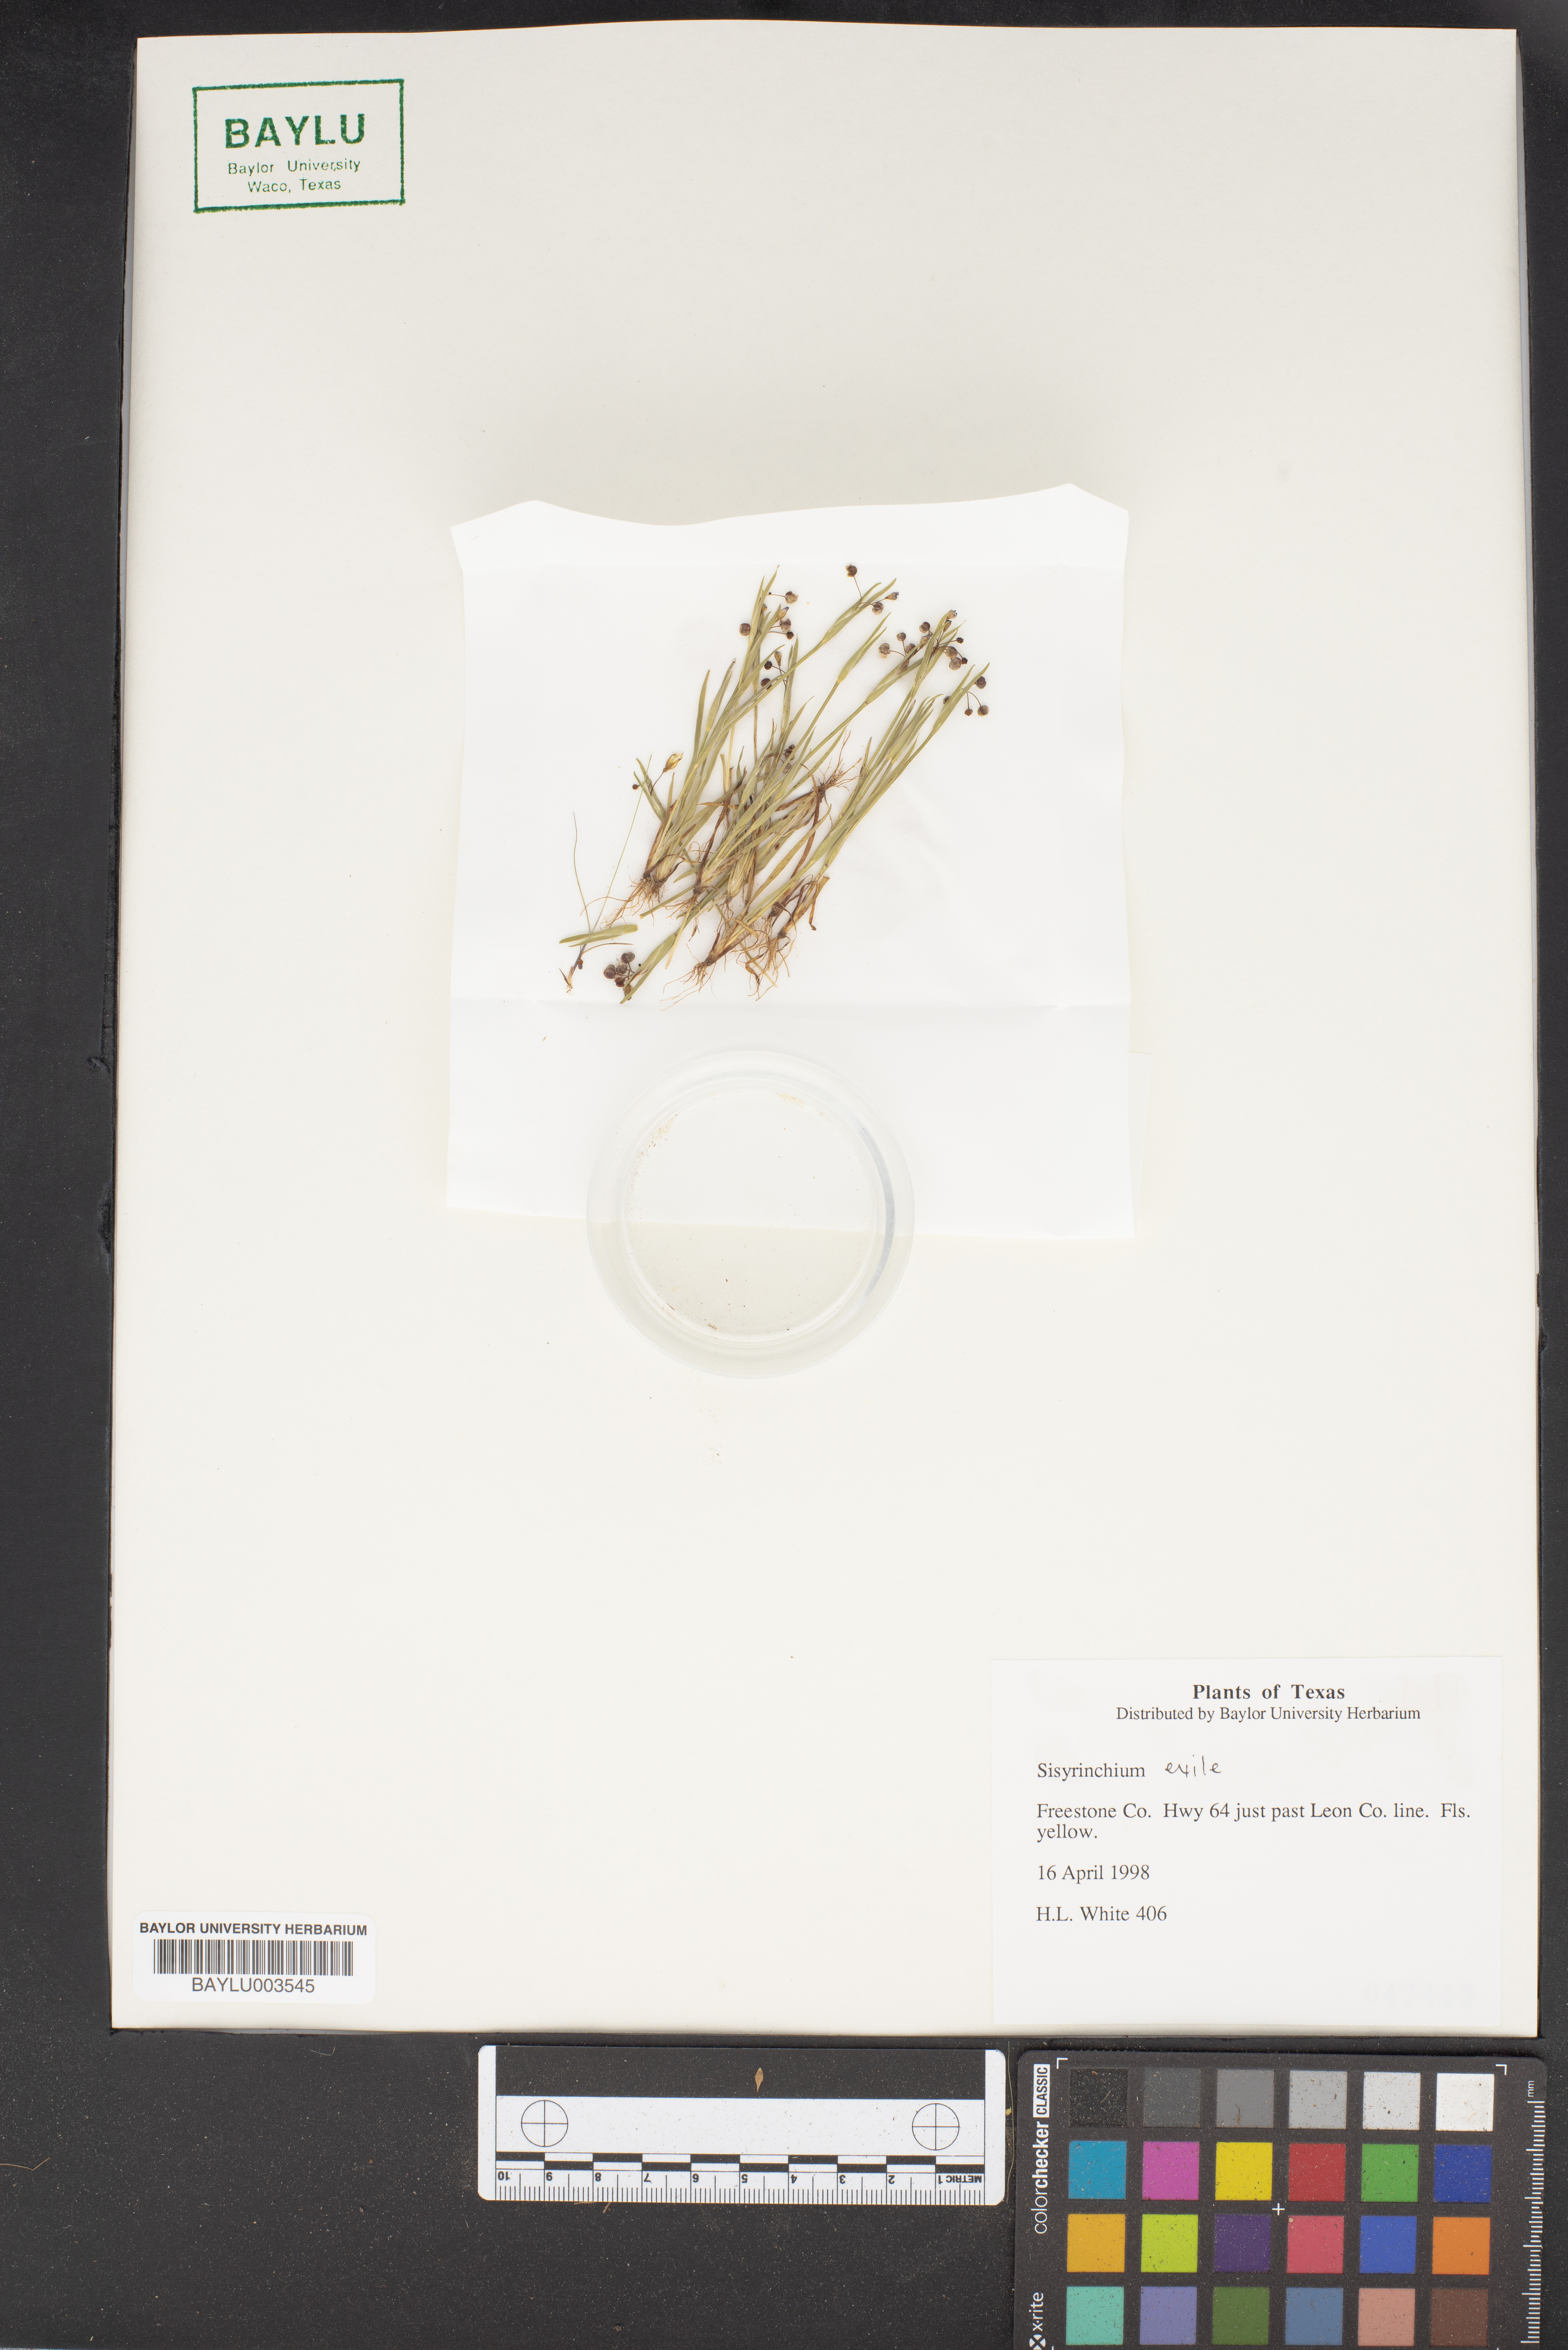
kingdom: Plantae
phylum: Tracheophyta
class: Liliopsida
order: Asparagales
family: Iridaceae
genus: Sisyrinchium
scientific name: Sisyrinchium rosulatum
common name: Annual blue-eyed grass
